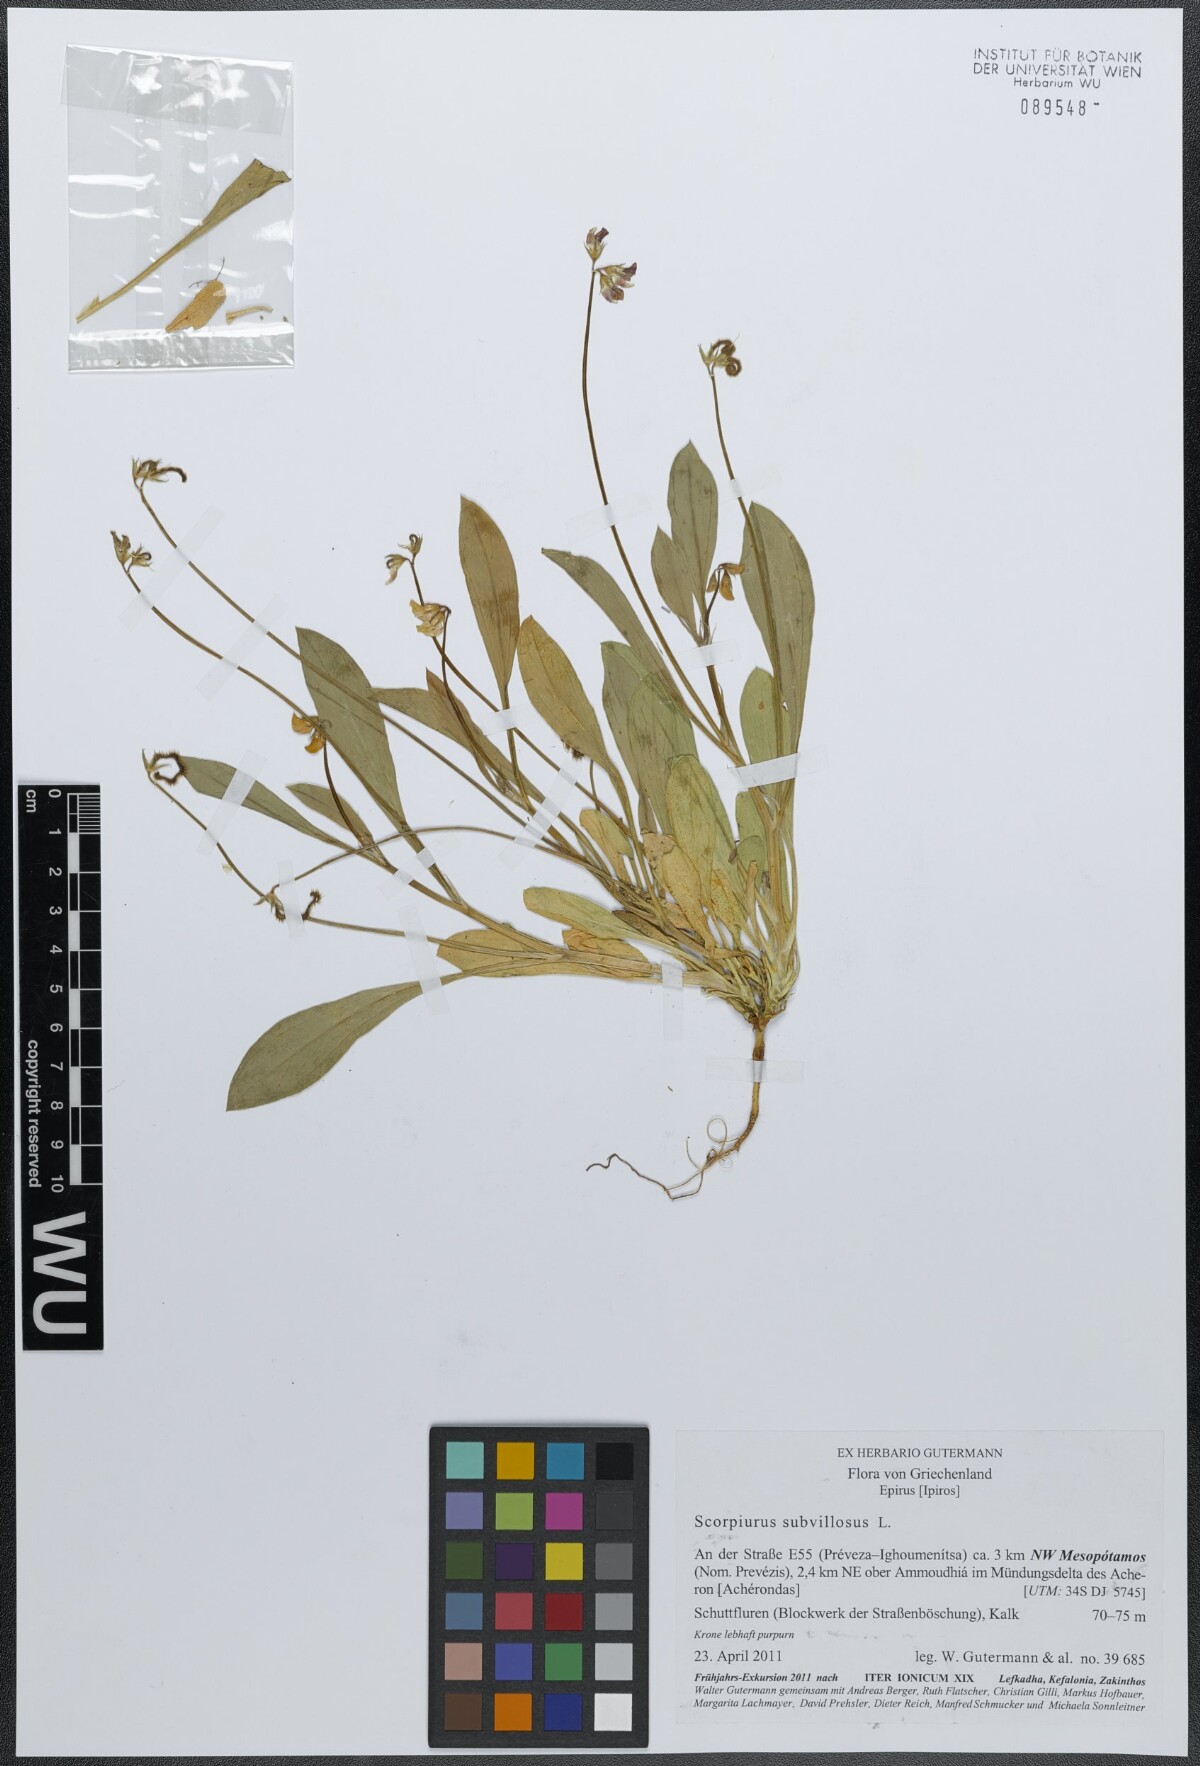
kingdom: Plantae
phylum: Tracheophyta
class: Magnoliopsida
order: Fabales
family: Fabaceae
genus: Scorpiurus
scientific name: Scorpiurus muricatus
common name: Caterpillar-plant
